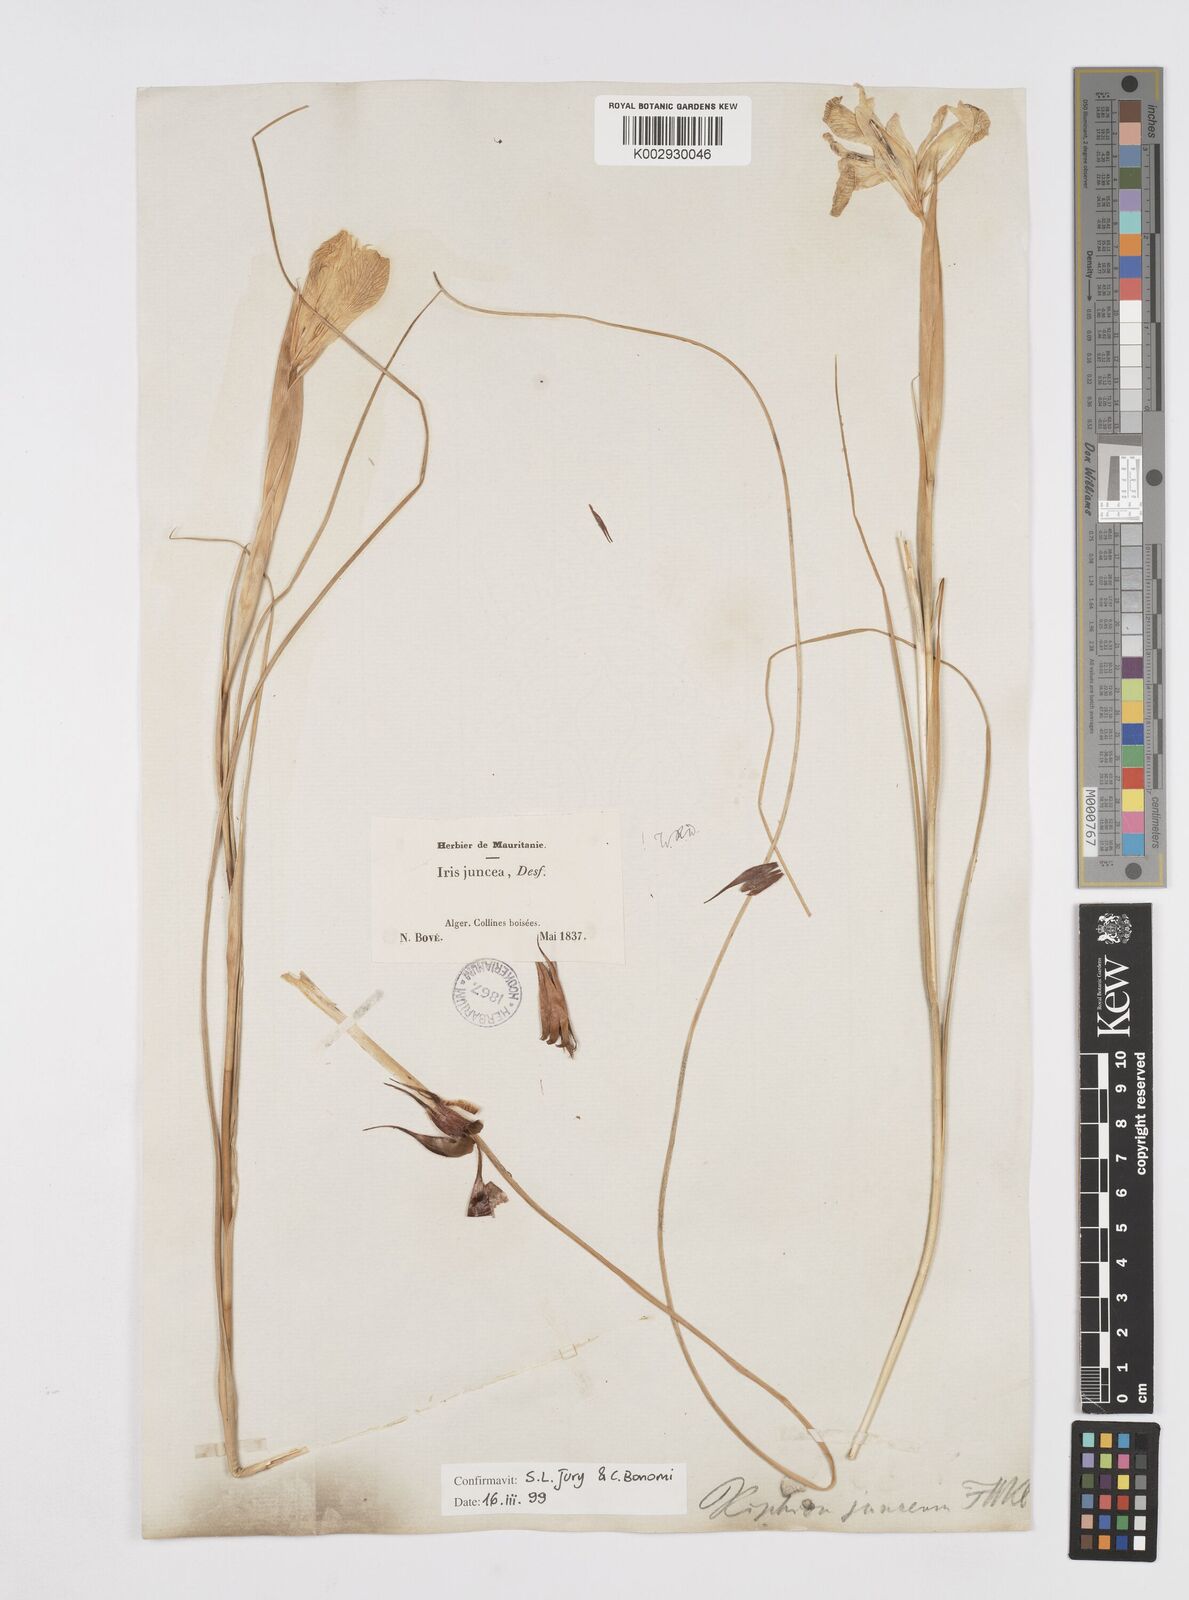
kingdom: Plantae
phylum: Tracheophyta
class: Liliopsida
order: Asparagales
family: Iridaceae
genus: Iris
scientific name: Iris juncea
